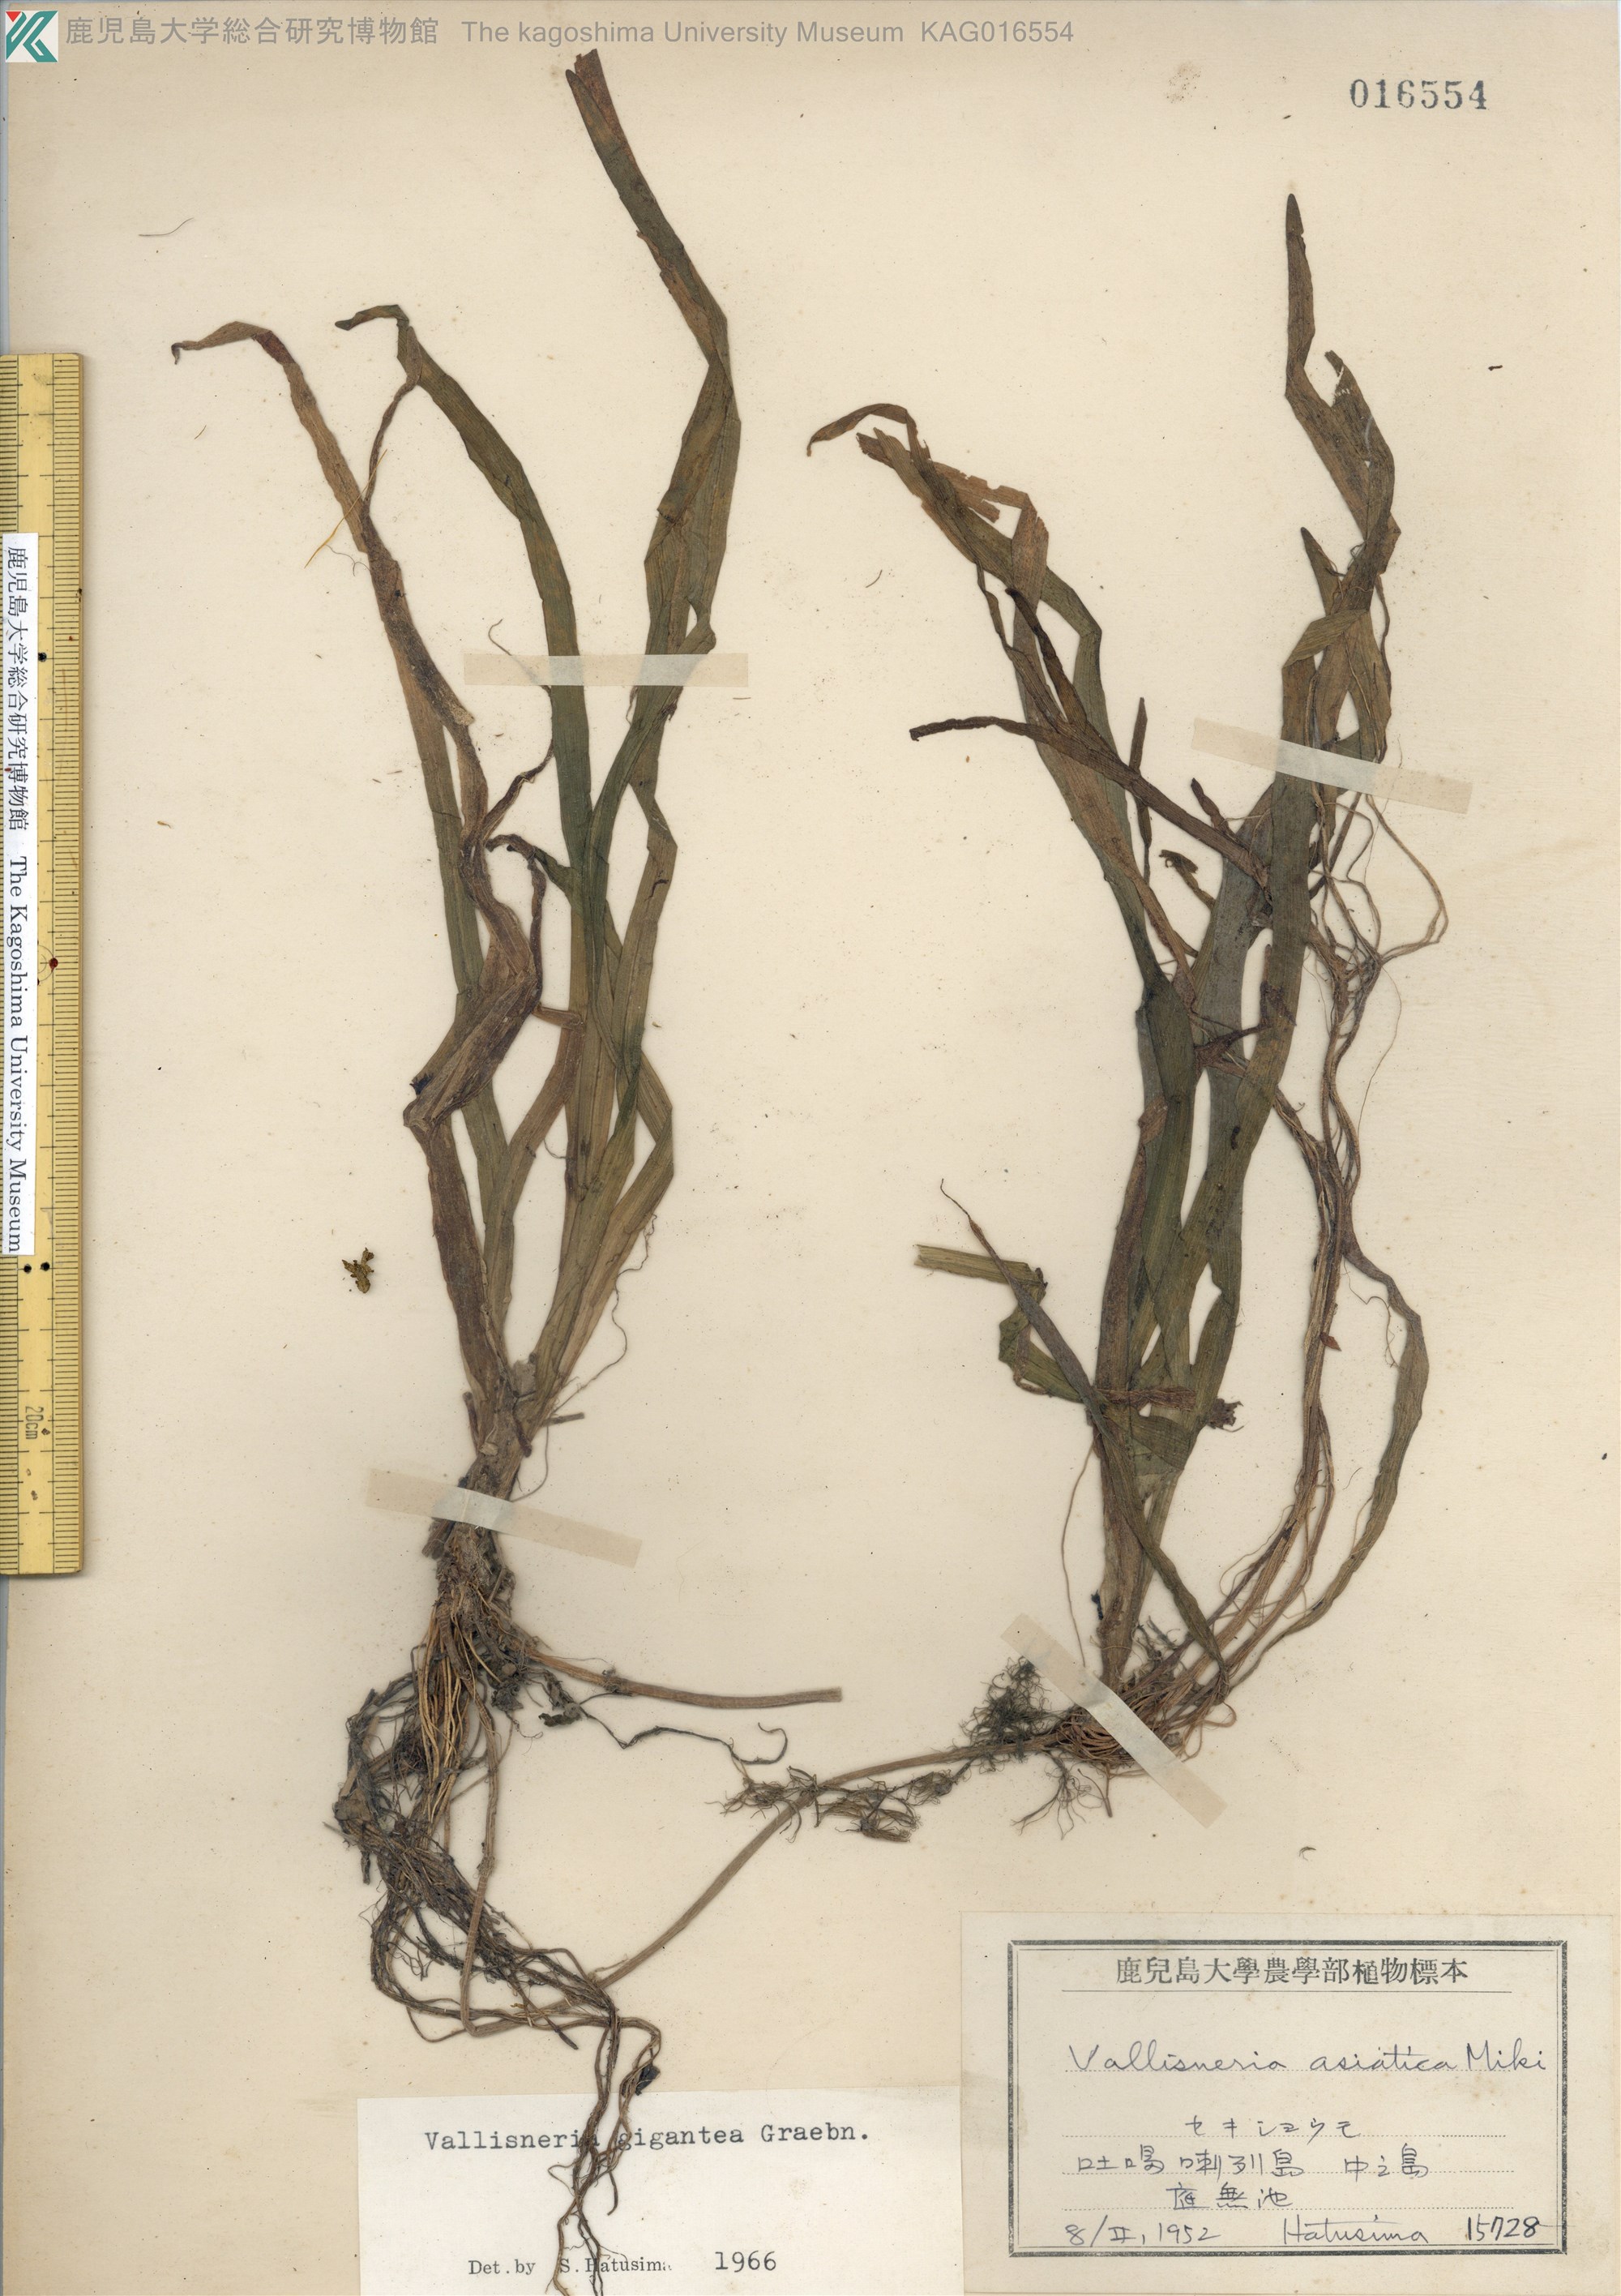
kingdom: Plantae
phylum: Tracheophyta
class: Liliopsida
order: Alismatales
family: Hydrocharitaceae
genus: Vallisneria
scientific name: Vallisneria natans
